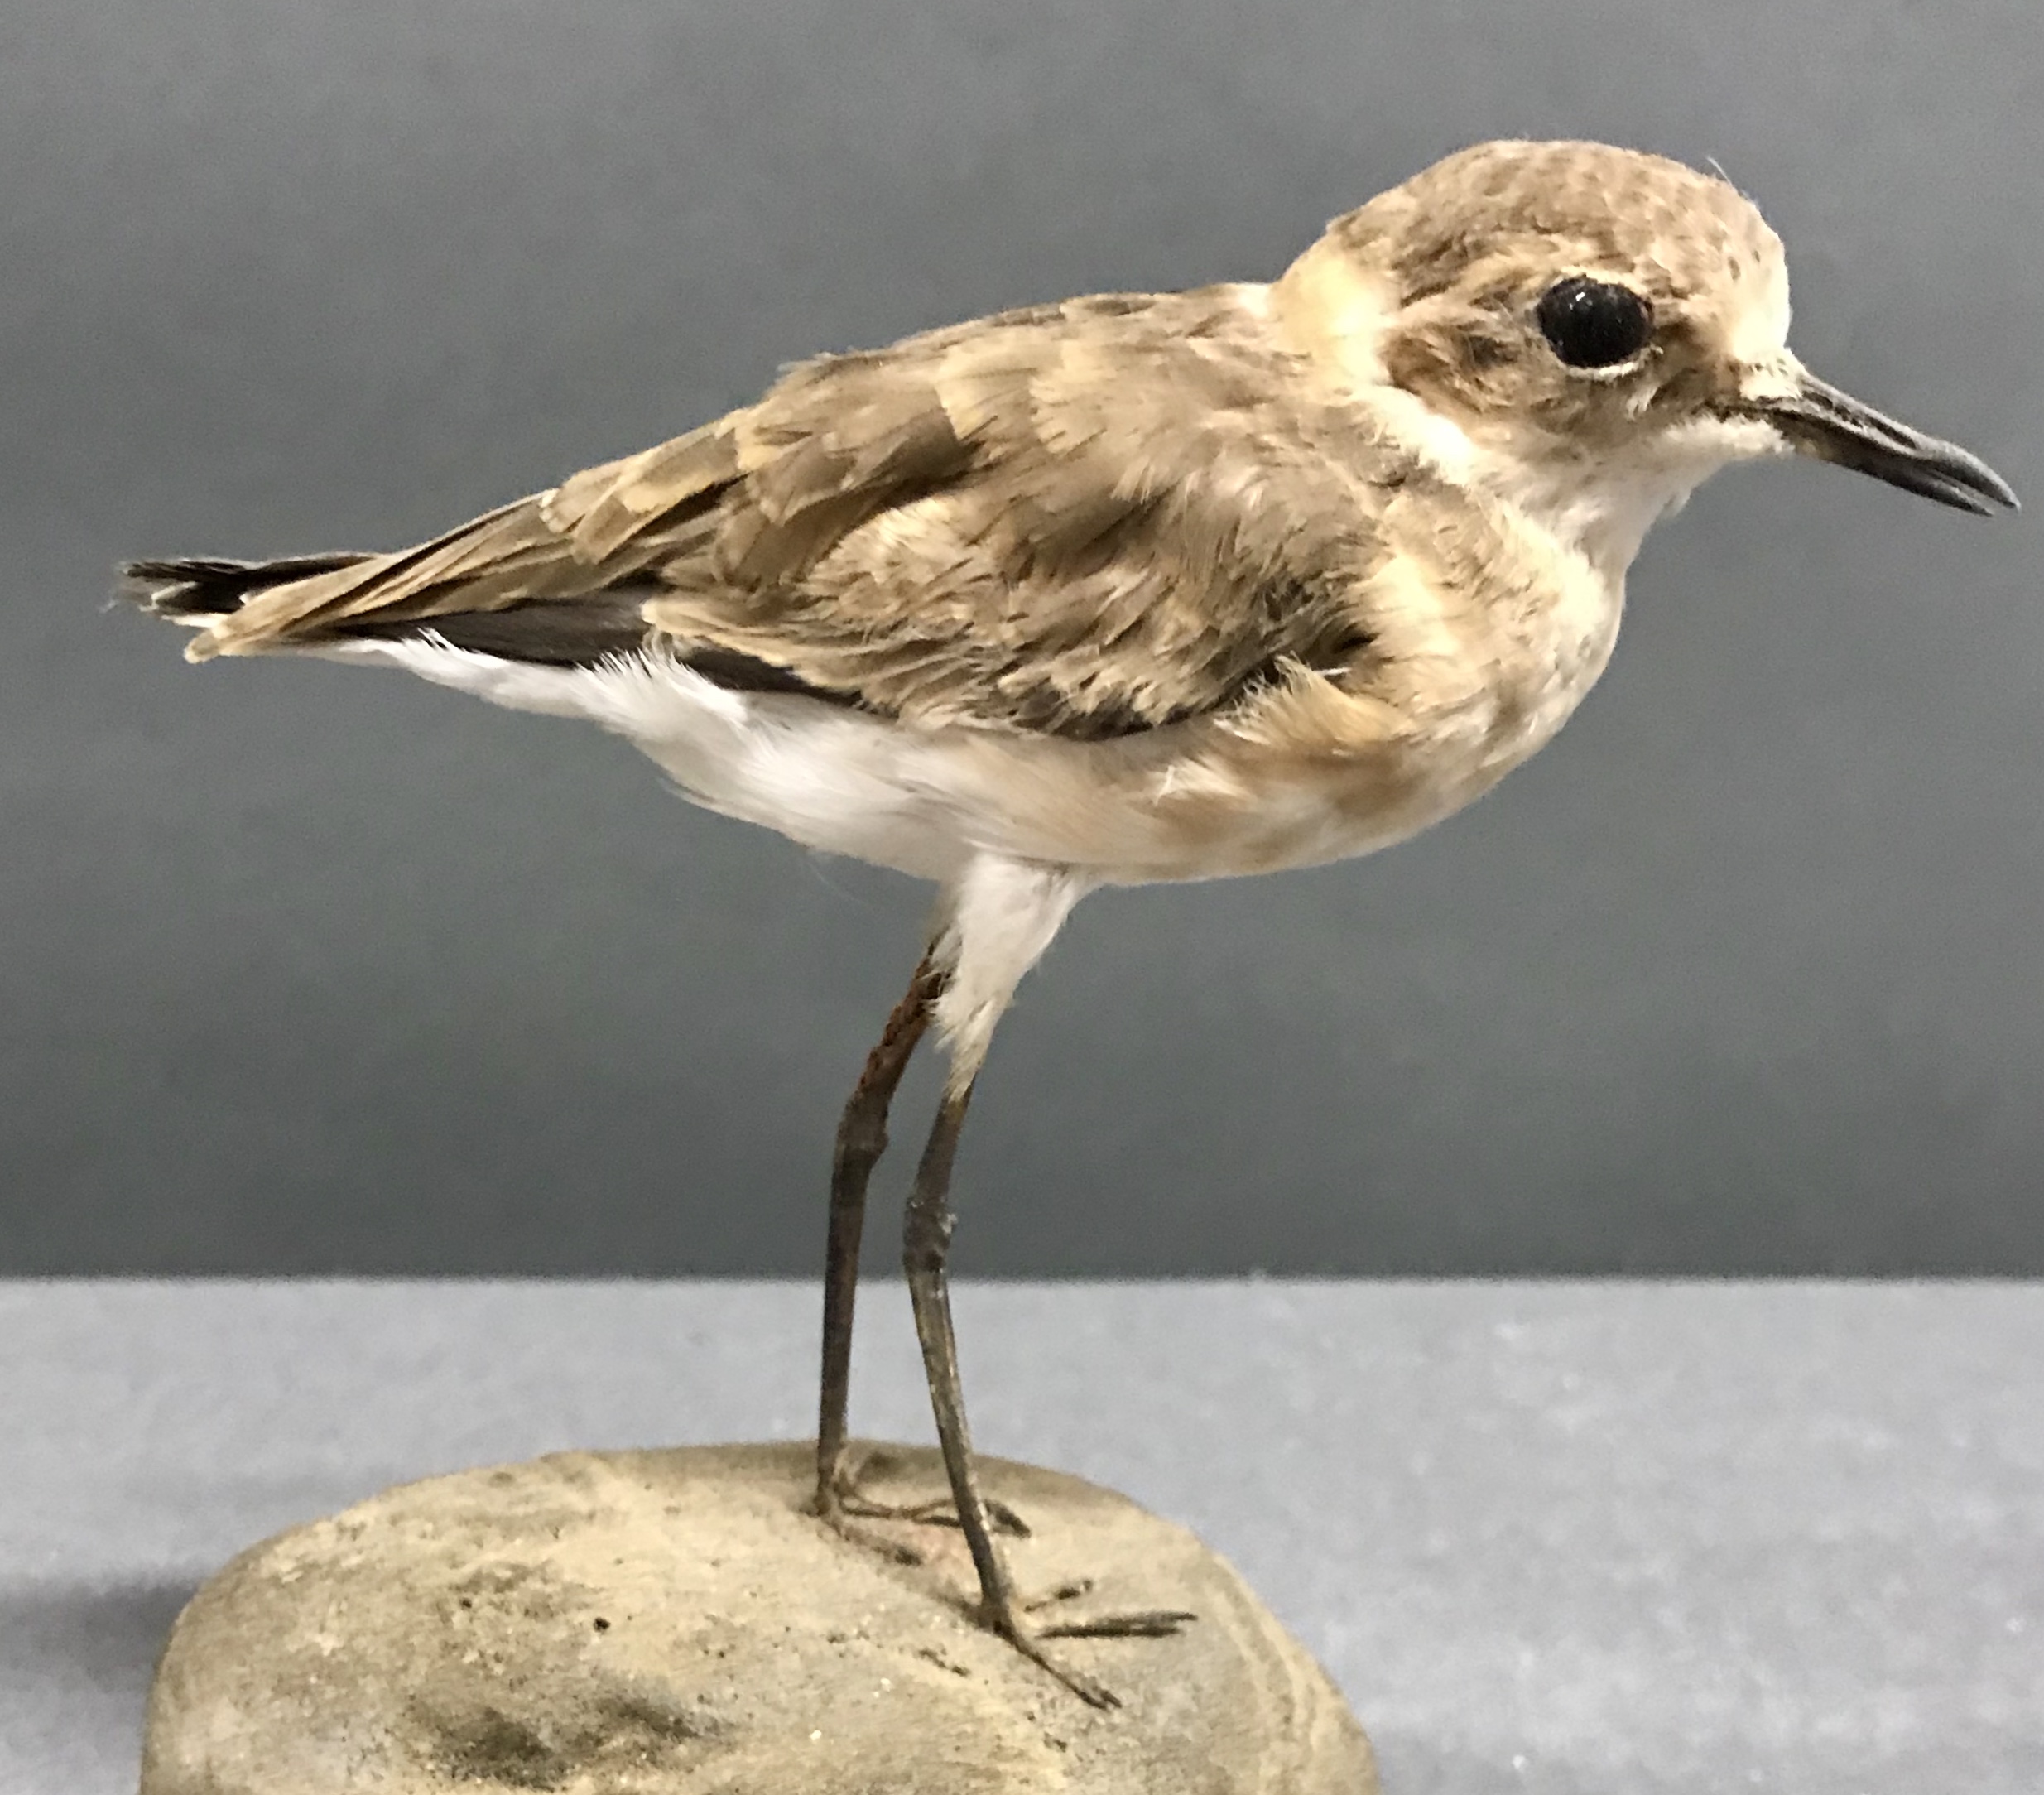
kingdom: Animalia
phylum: Chordata
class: Aves
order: Charadriiformes
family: Charadriidae
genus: Charadrius
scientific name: Charadrius pecuarius
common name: Kittlitz's plover
